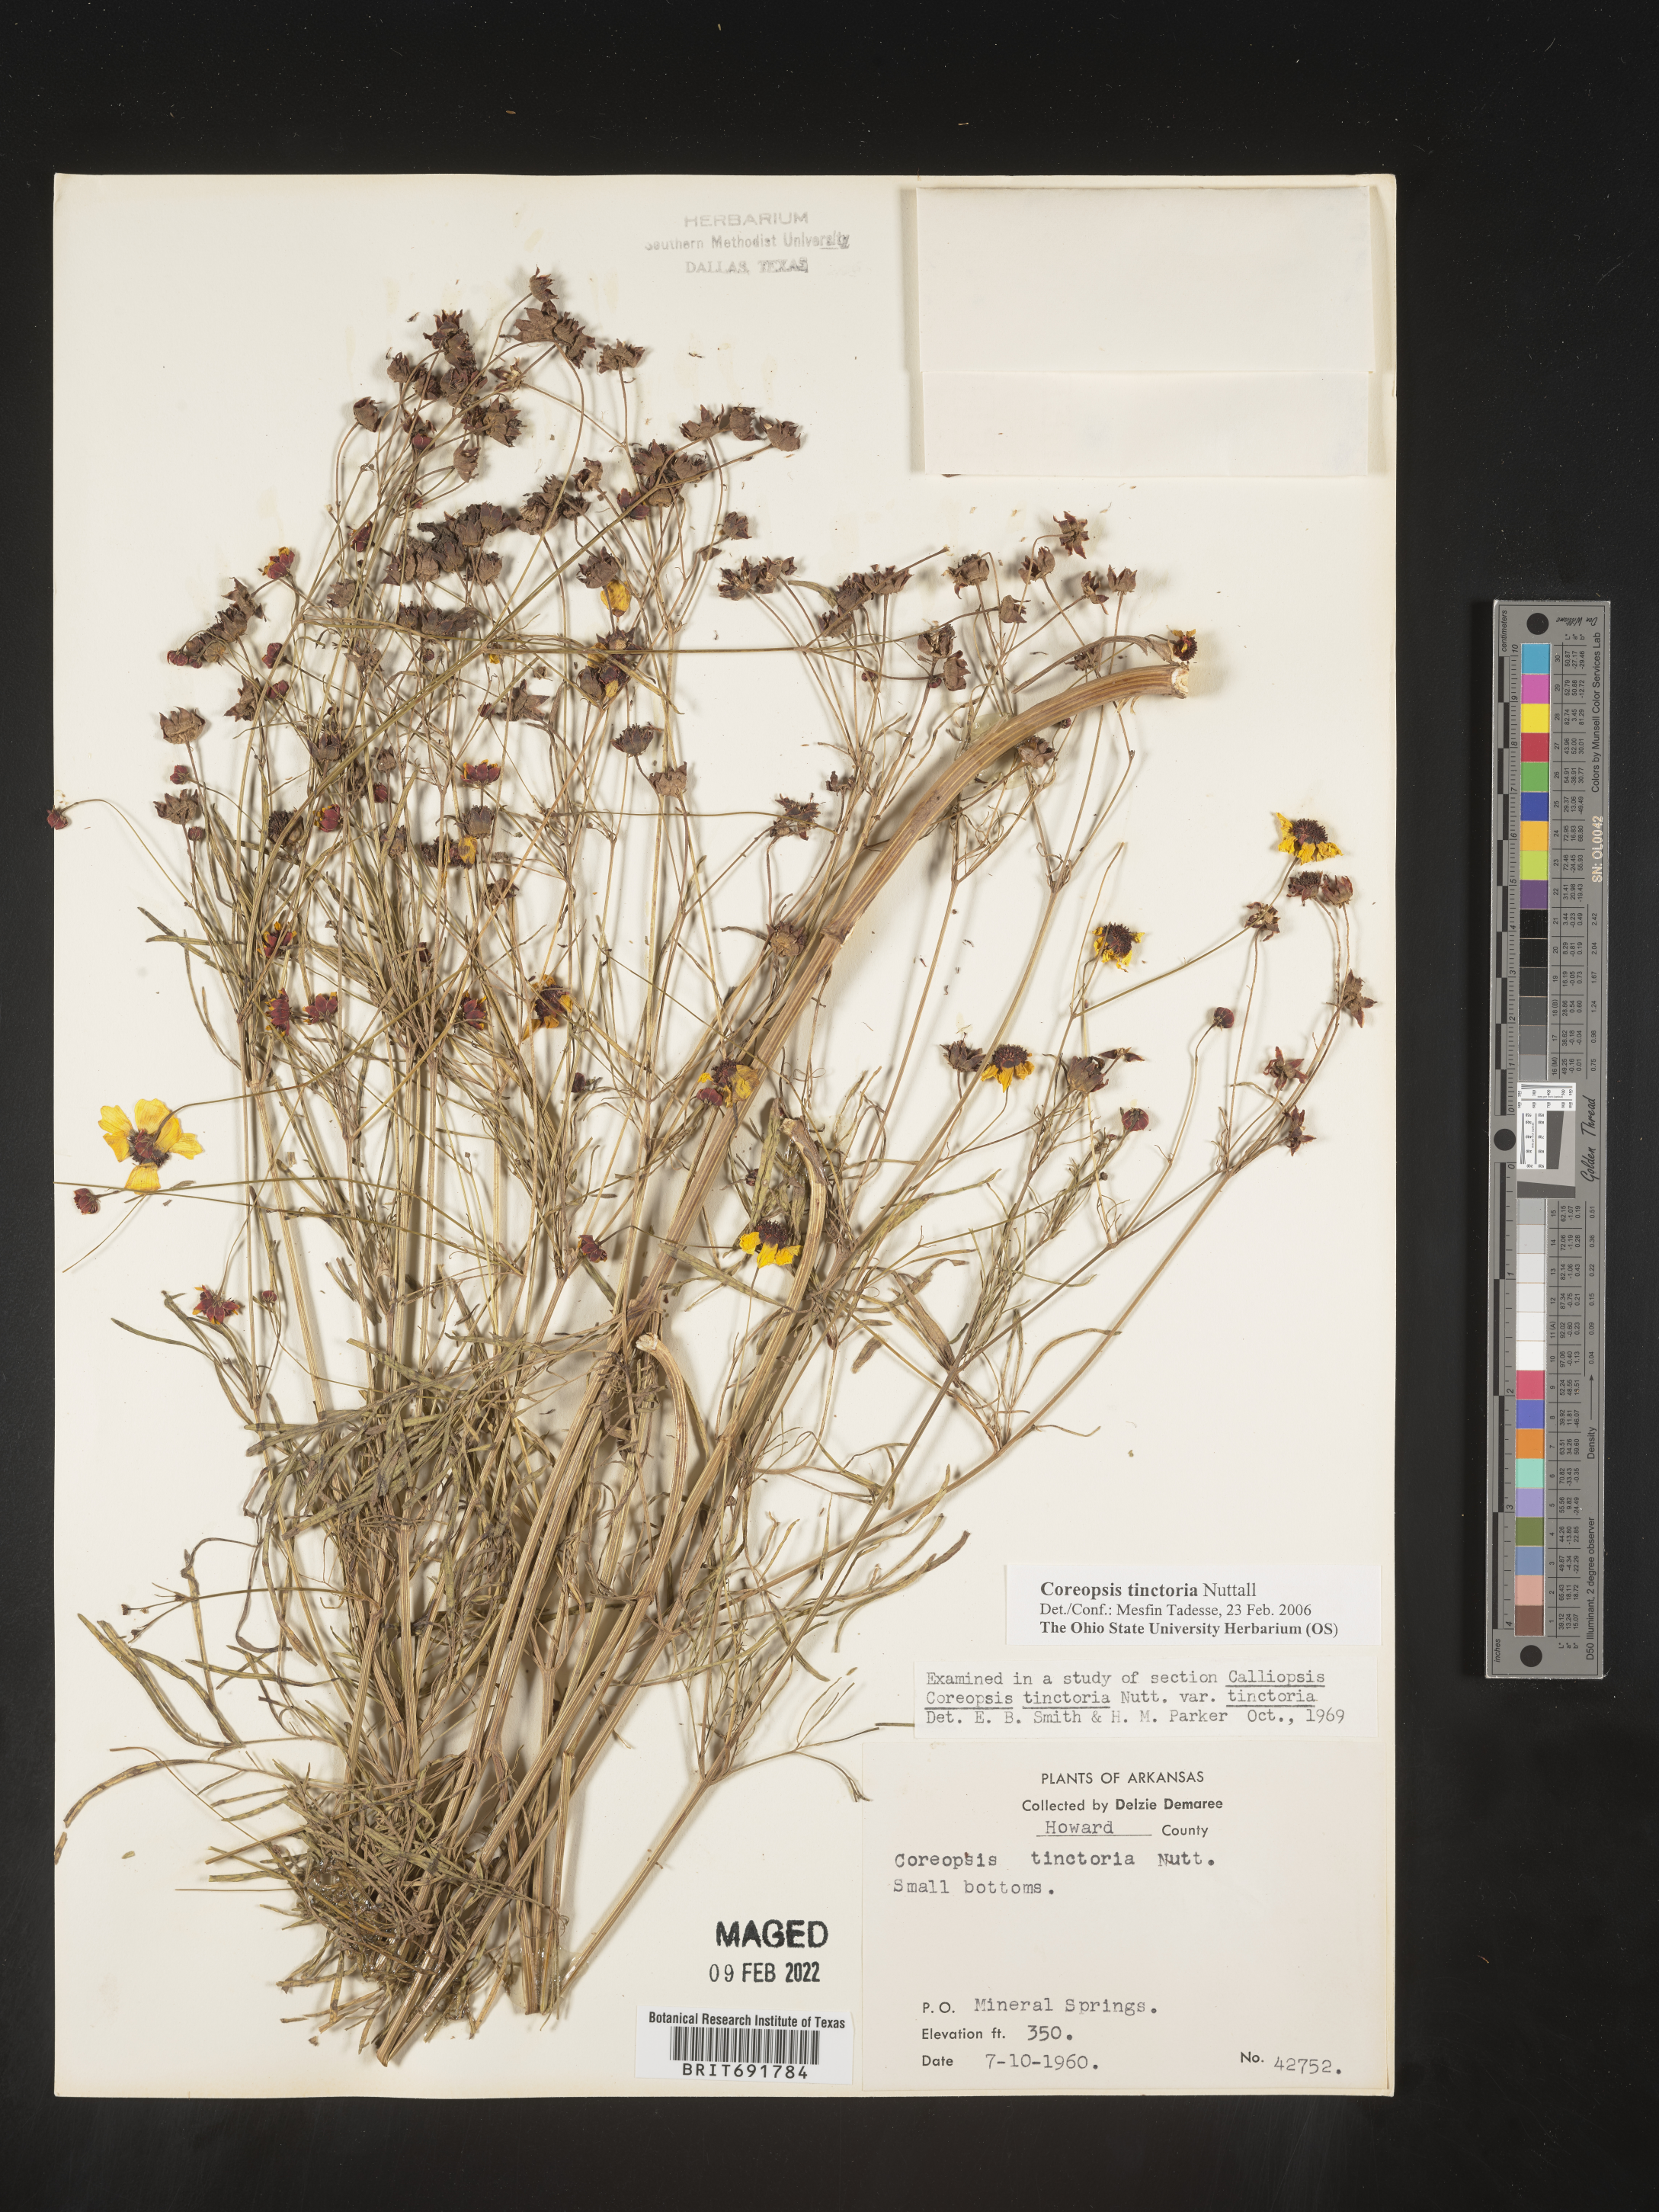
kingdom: Plantae
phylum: Tracheophyta
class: Magnoliopsida
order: Asterales
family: Asteraceae
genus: Coreopsis
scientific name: Coreopsis tinctoria
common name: Garden tickseed
